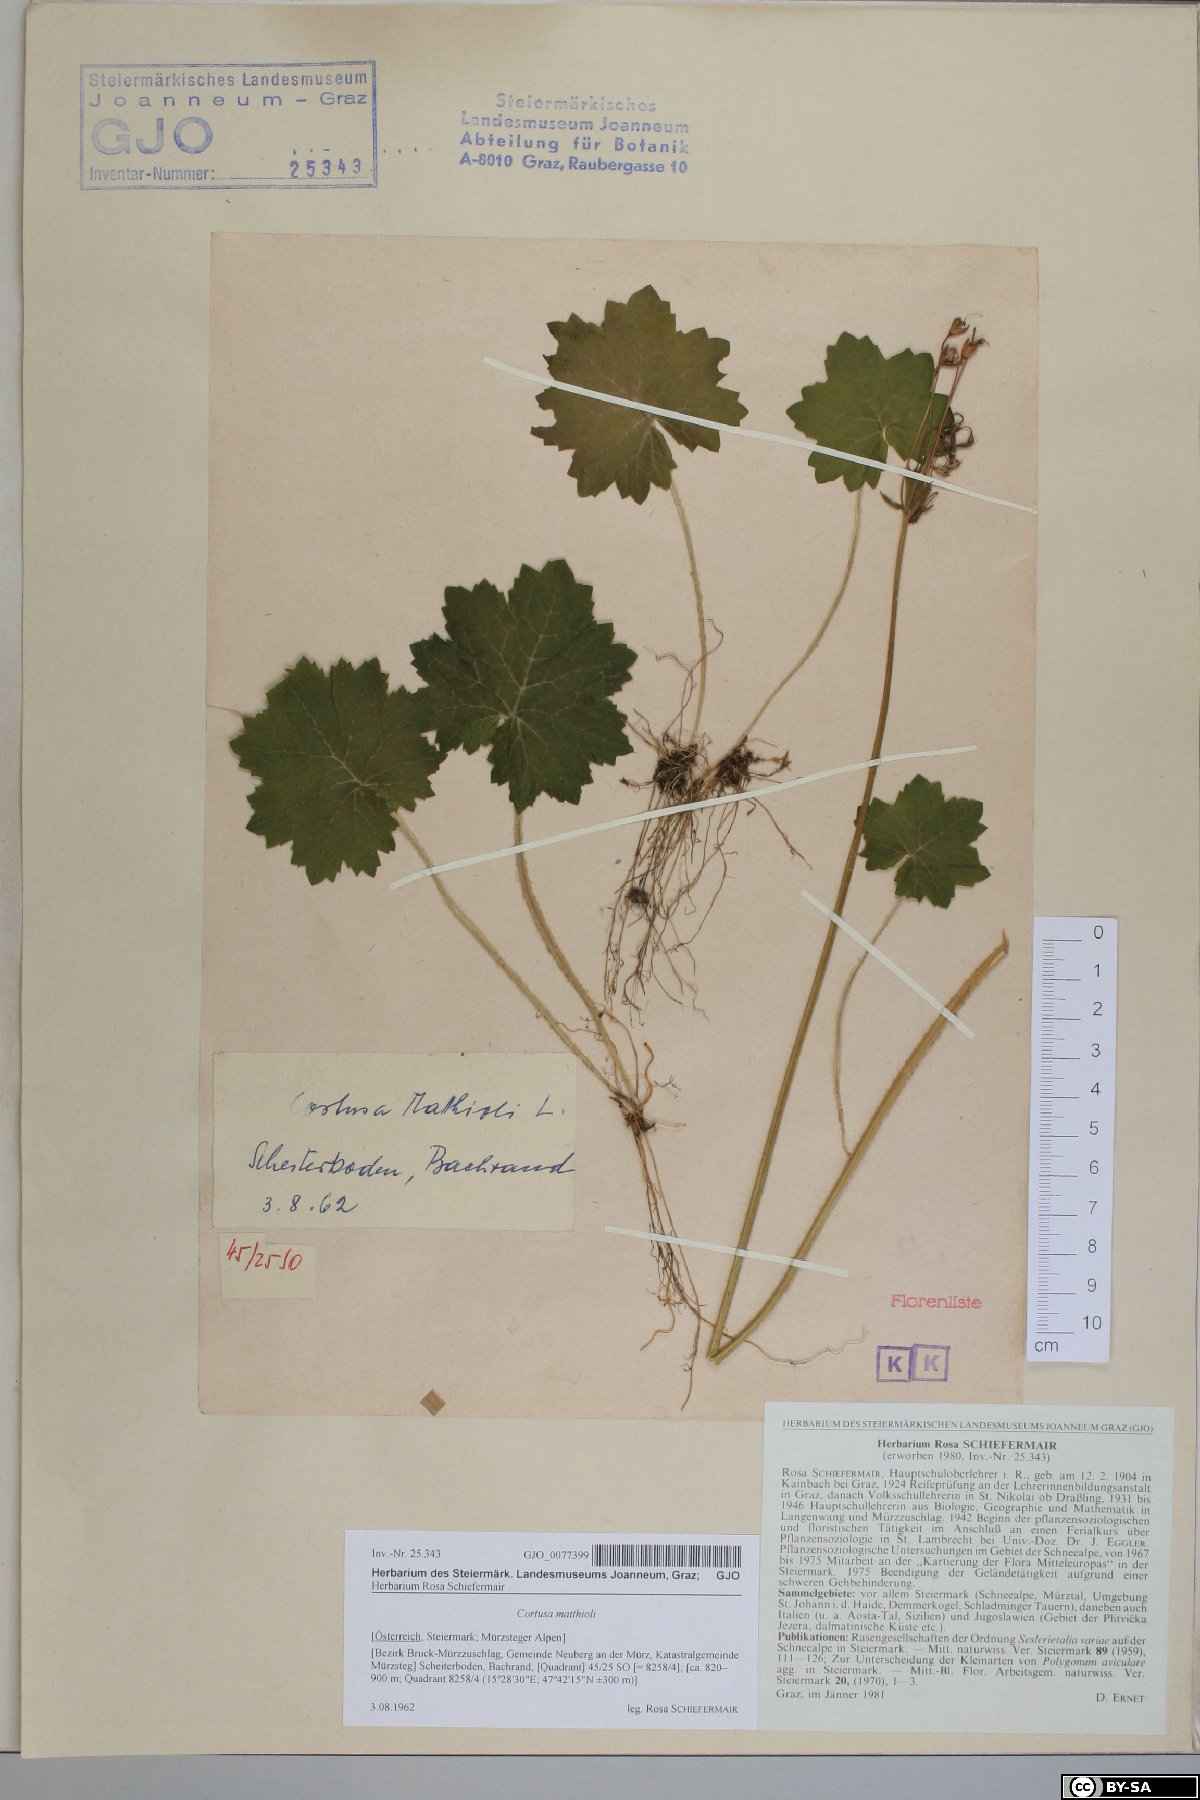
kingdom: Plantae
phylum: Tracheophyta
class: Magnoliopsida
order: Ericales
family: Primulaceae
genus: Primula
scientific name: Primula matthioli
